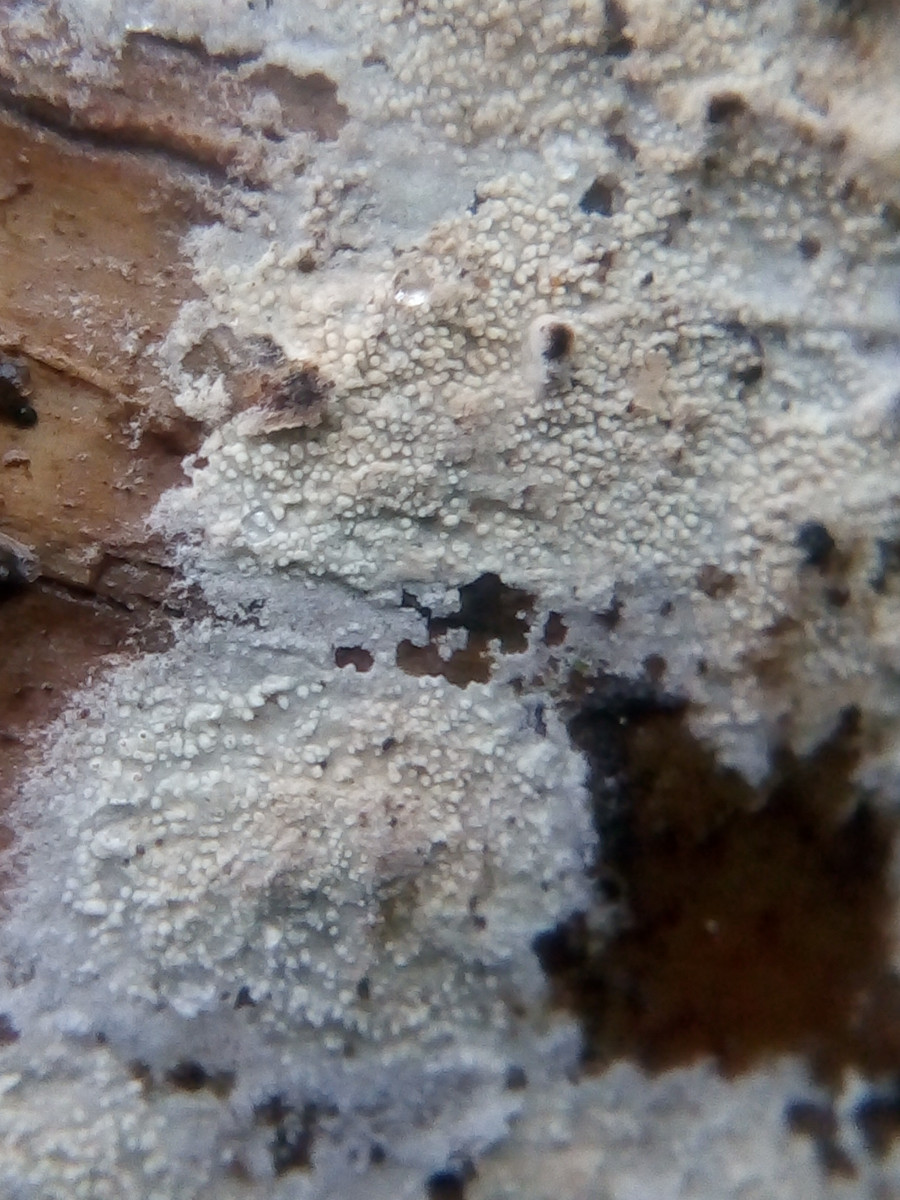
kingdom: Fungi
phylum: Basidiomycota
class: Agaricomycetes
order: Corticiales
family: Corticiaceae
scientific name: Corticiaceae
